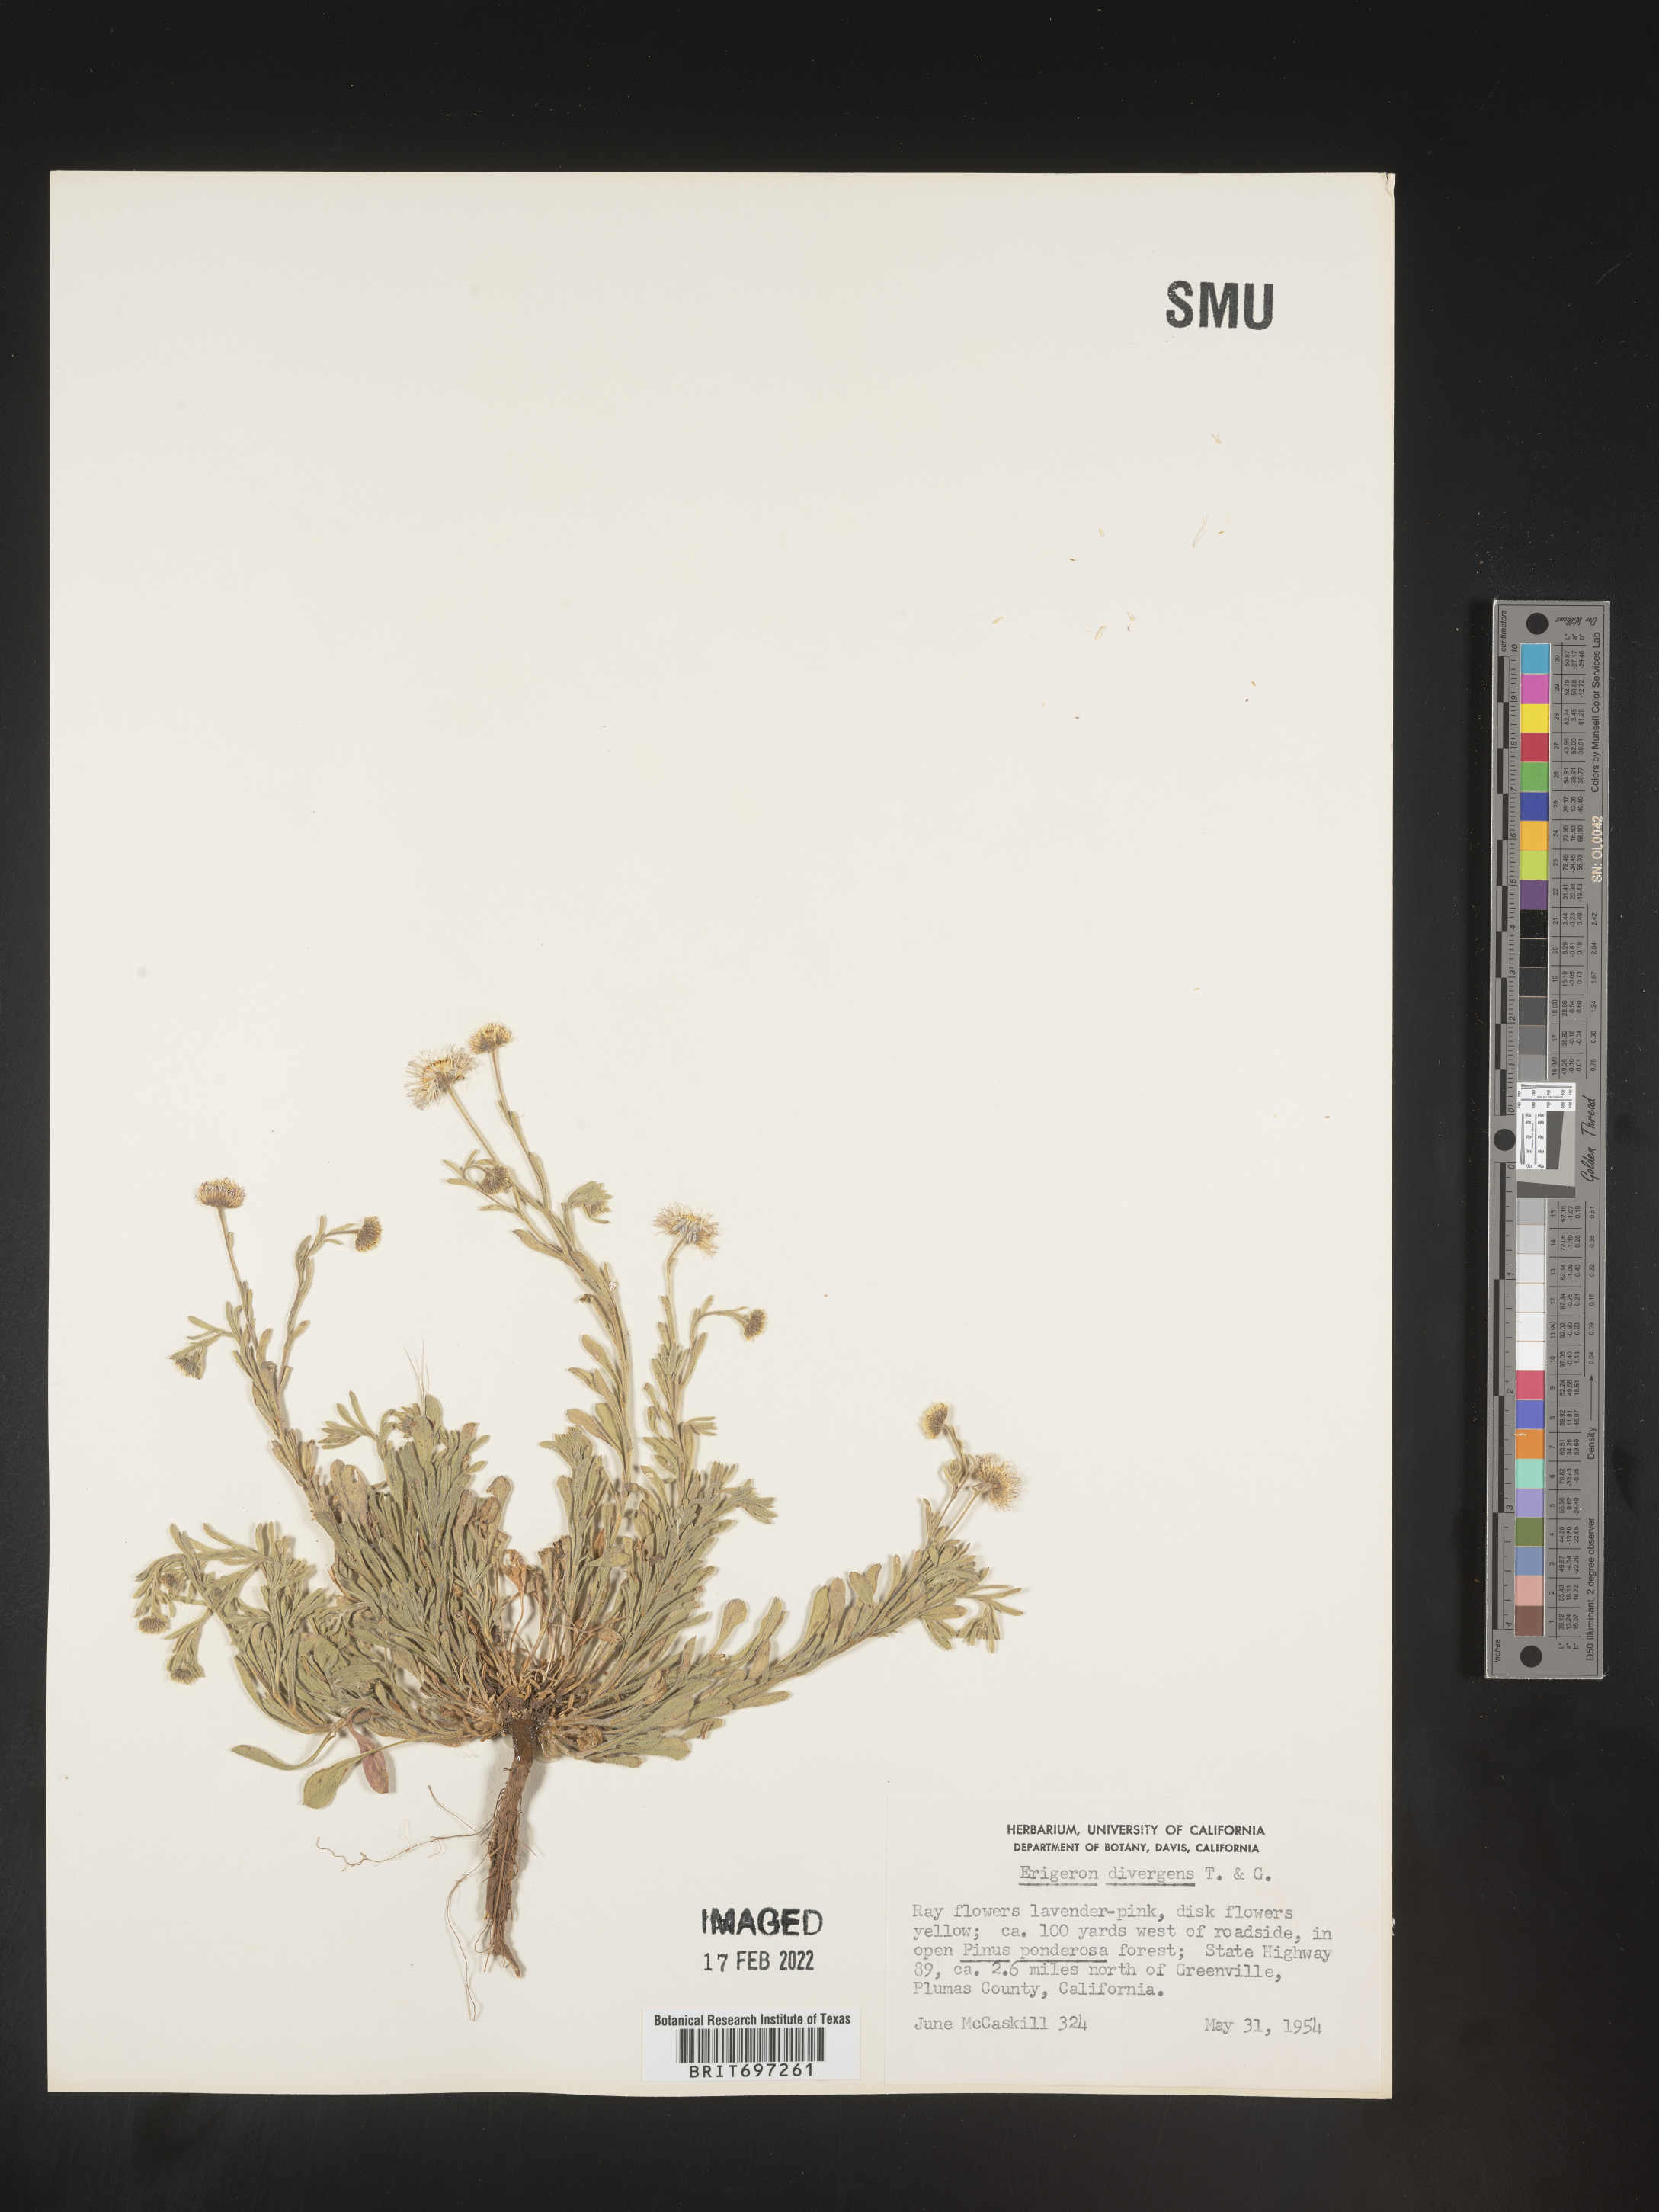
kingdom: Plantae
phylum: Tracheophyta
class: Magnoliopsida
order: Asterales
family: Asteraceae
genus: Erigeron
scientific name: Erigeron divergens
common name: Diffuse fleabane
